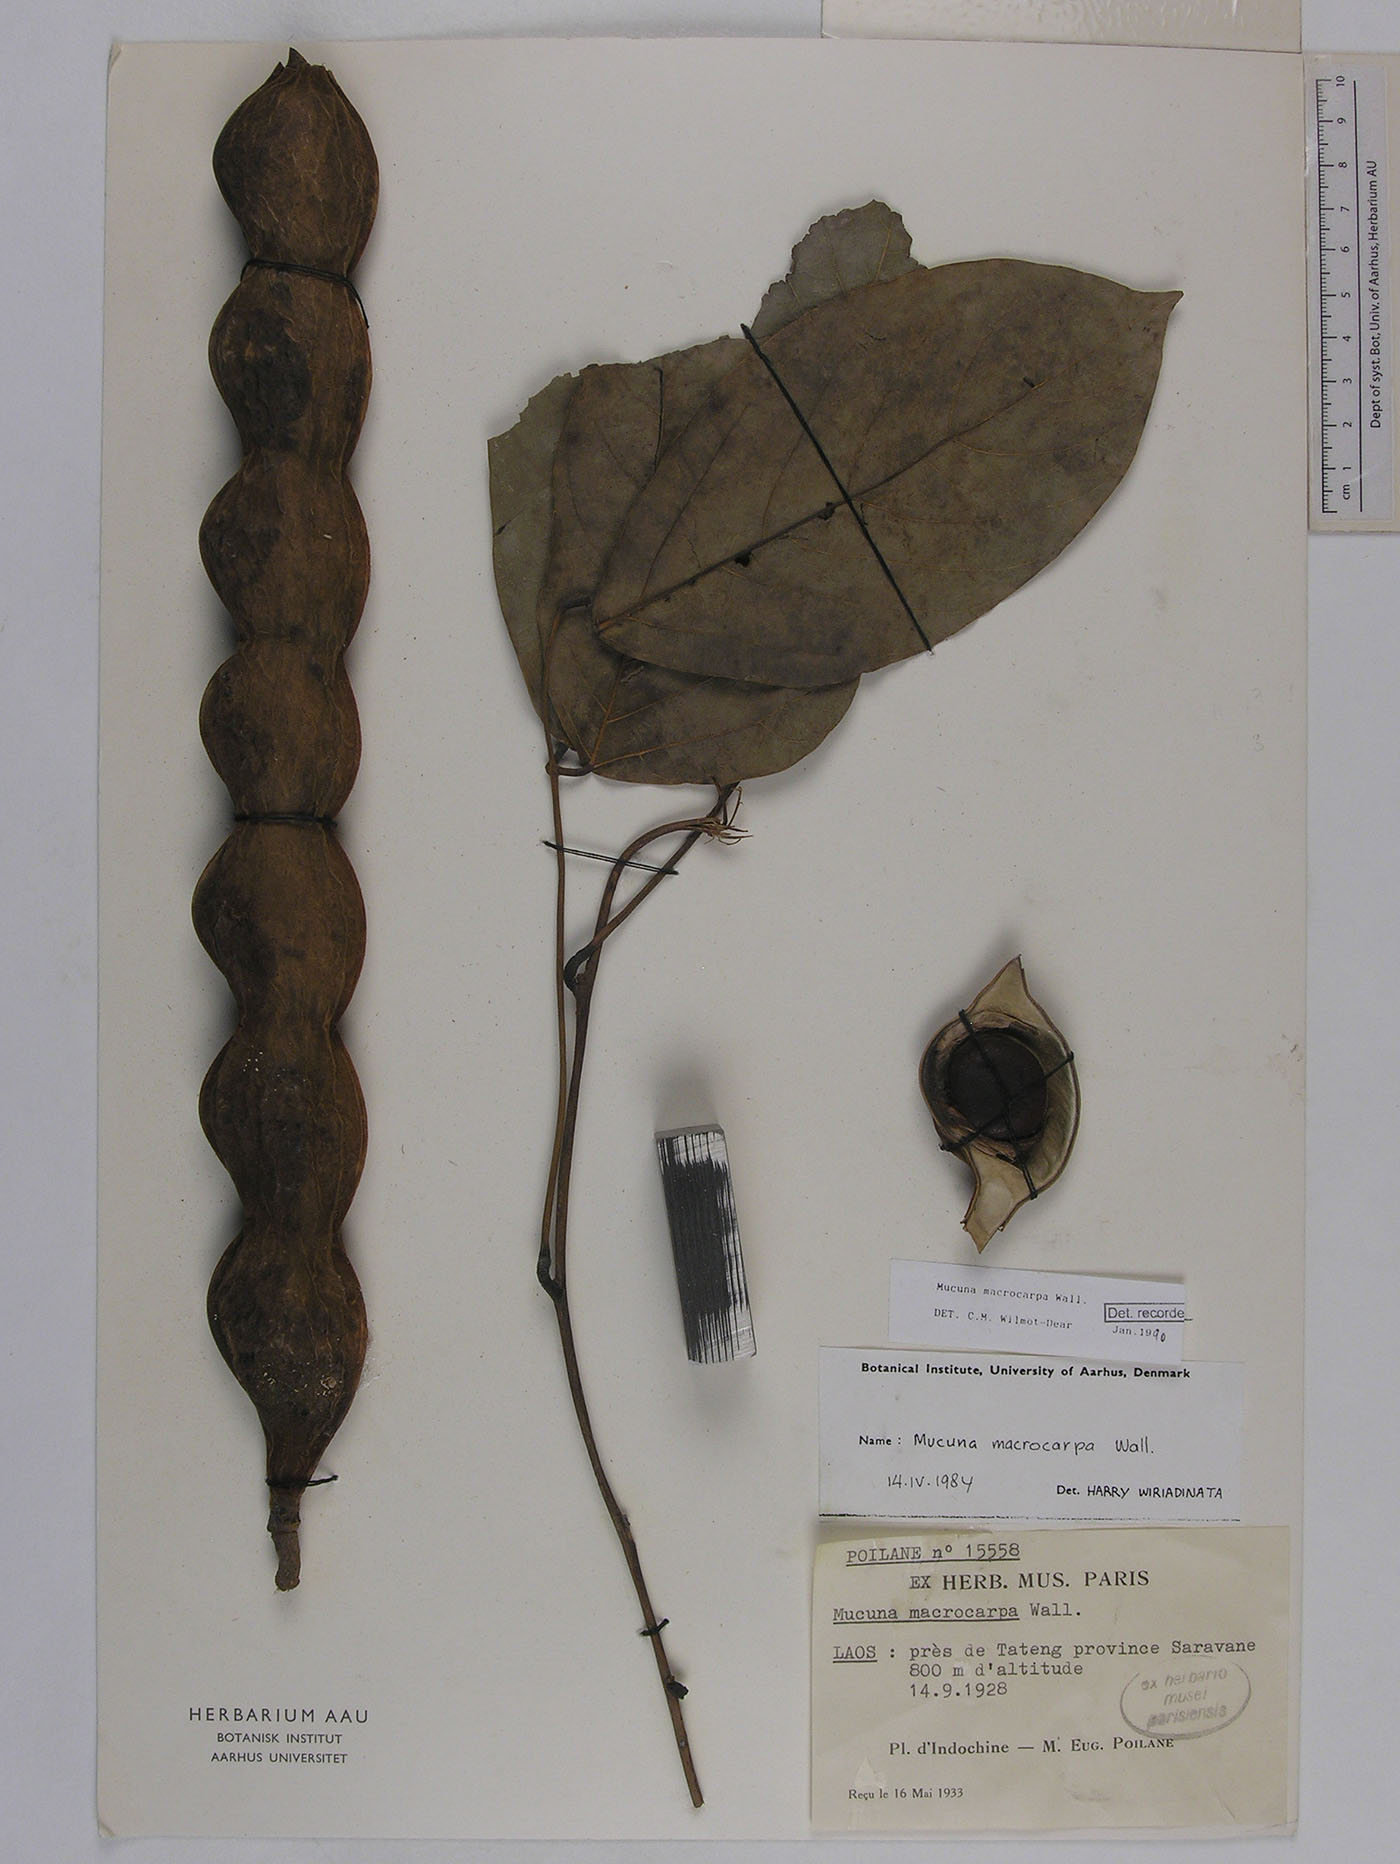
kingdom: Plantae
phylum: Tracheophyta
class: Magnoliopsida
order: Fabales
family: Fabaceae
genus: Mucuna
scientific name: Mucuna macrocarpa
